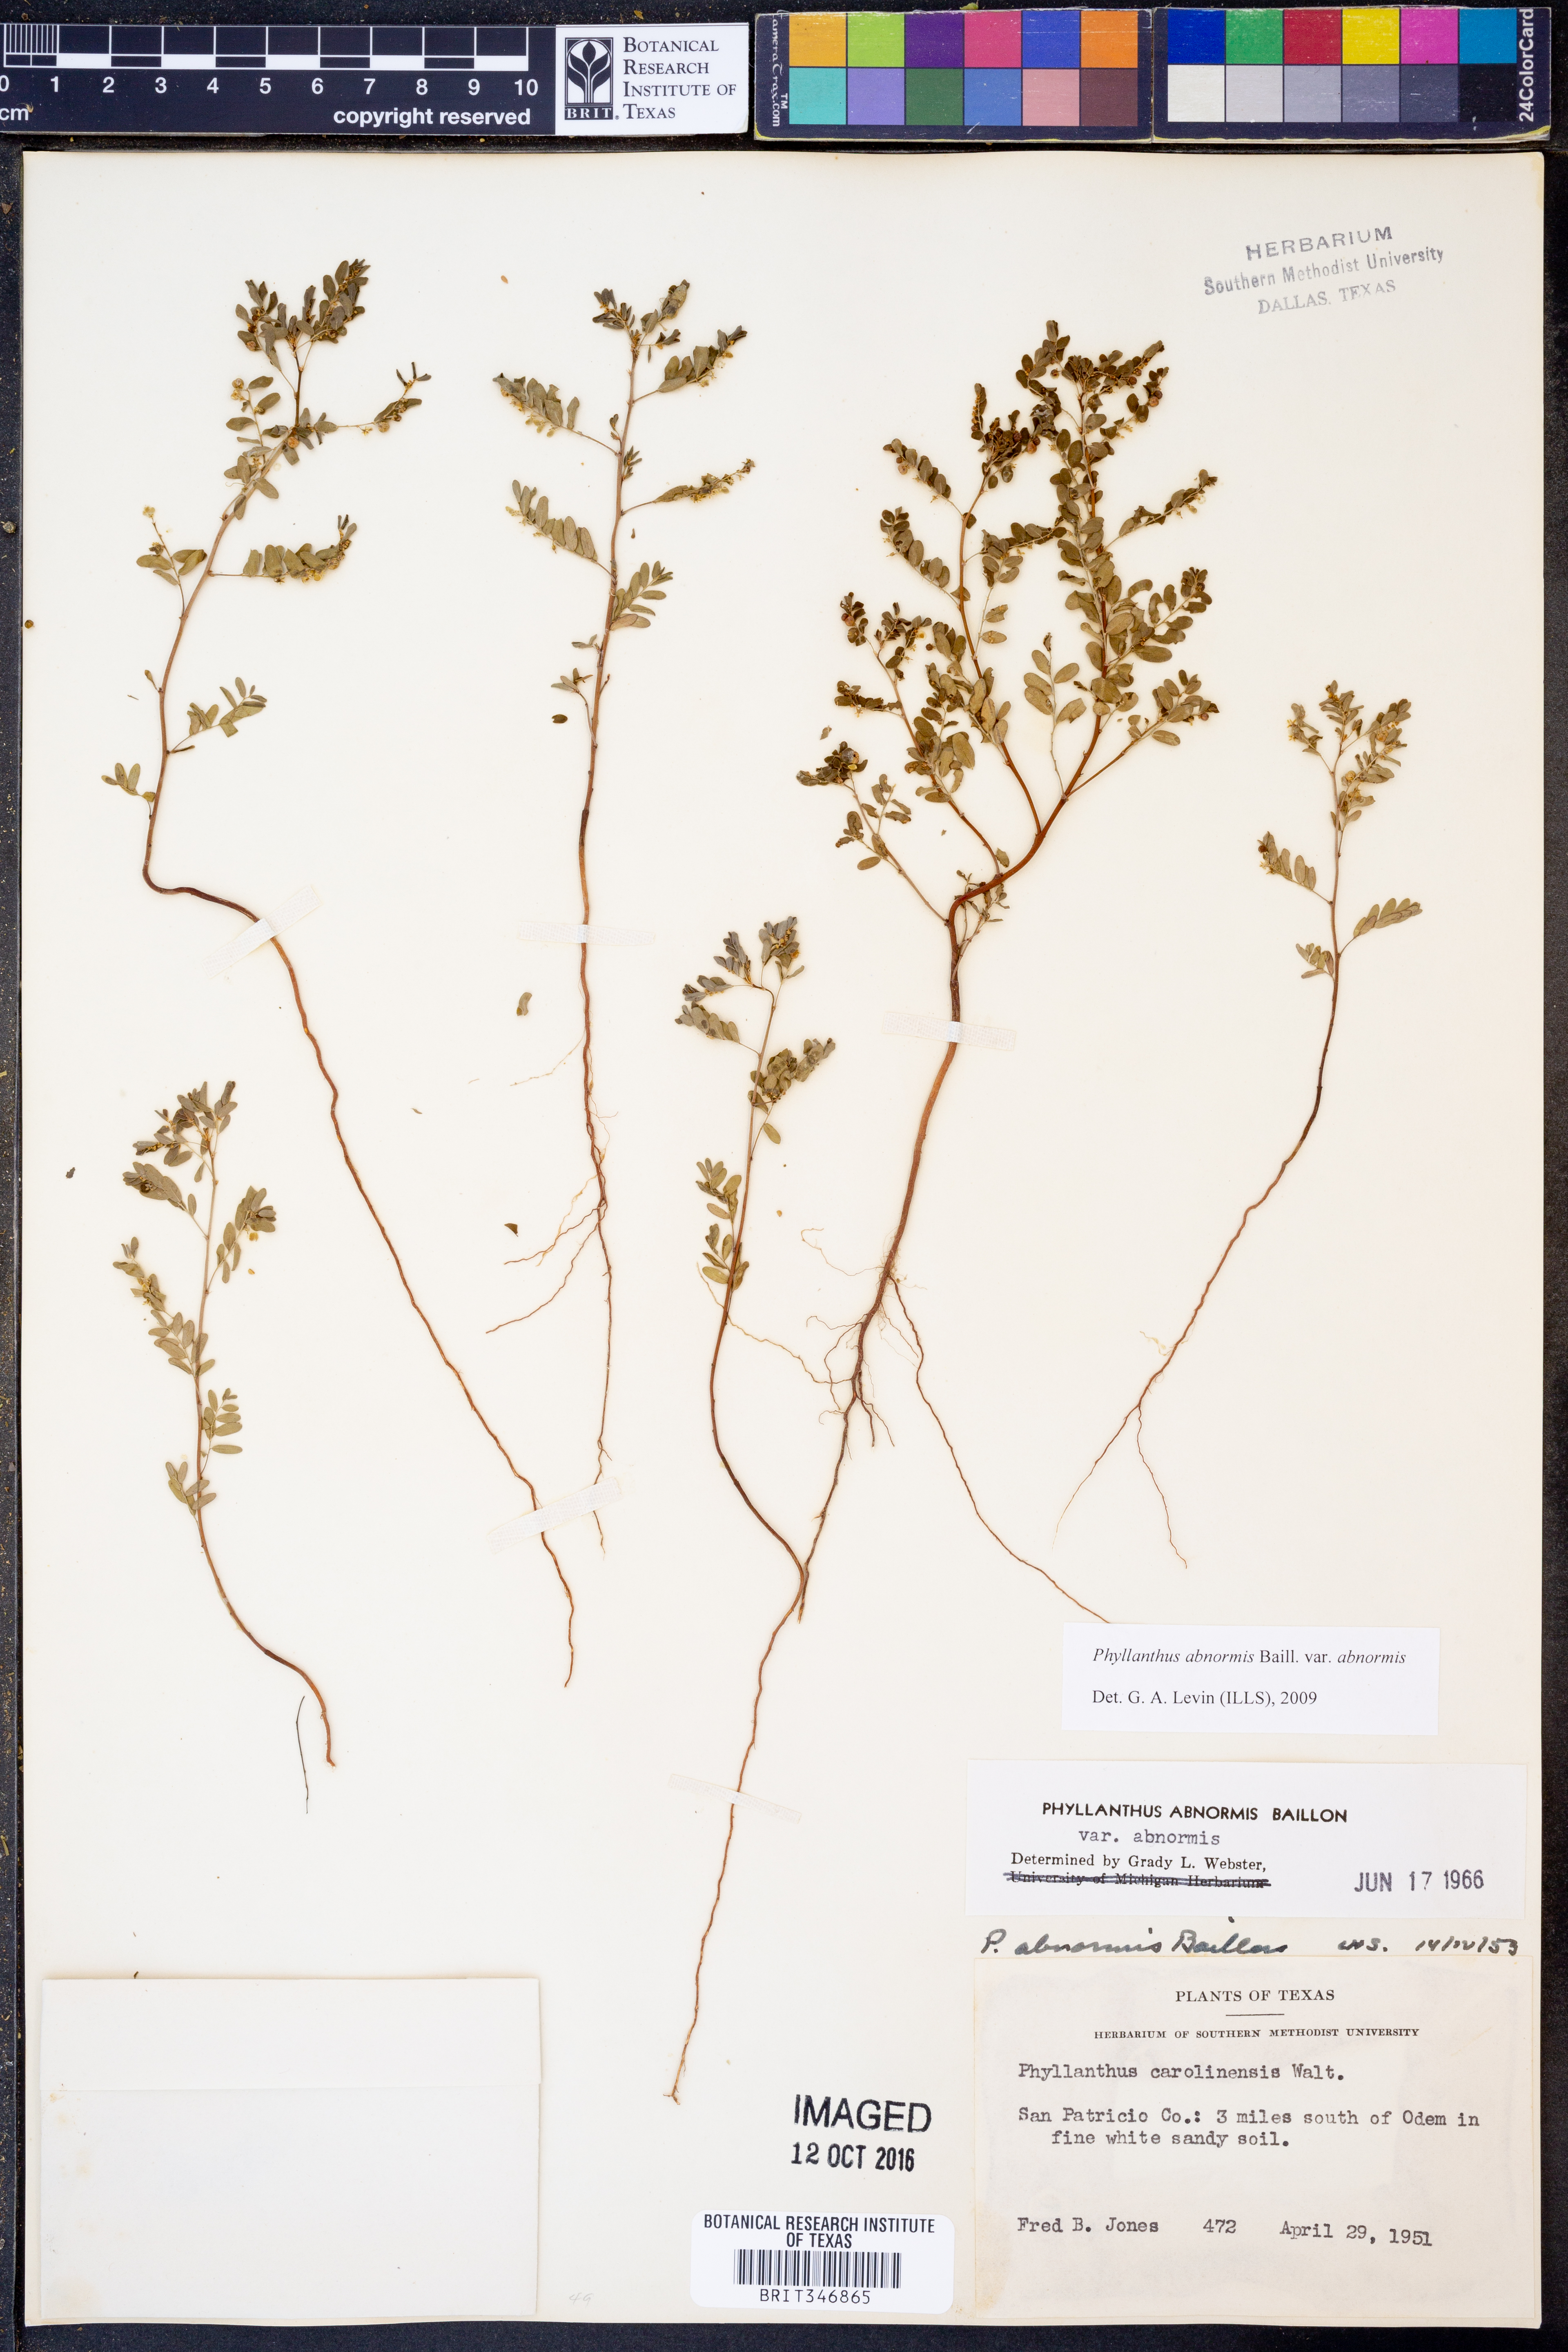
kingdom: Plantae
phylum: Tracheophyta
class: Magnoliopsida
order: Malpighiales
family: Phyllanthaceae
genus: Phyllanthus
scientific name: Phyllanthus abnormis
